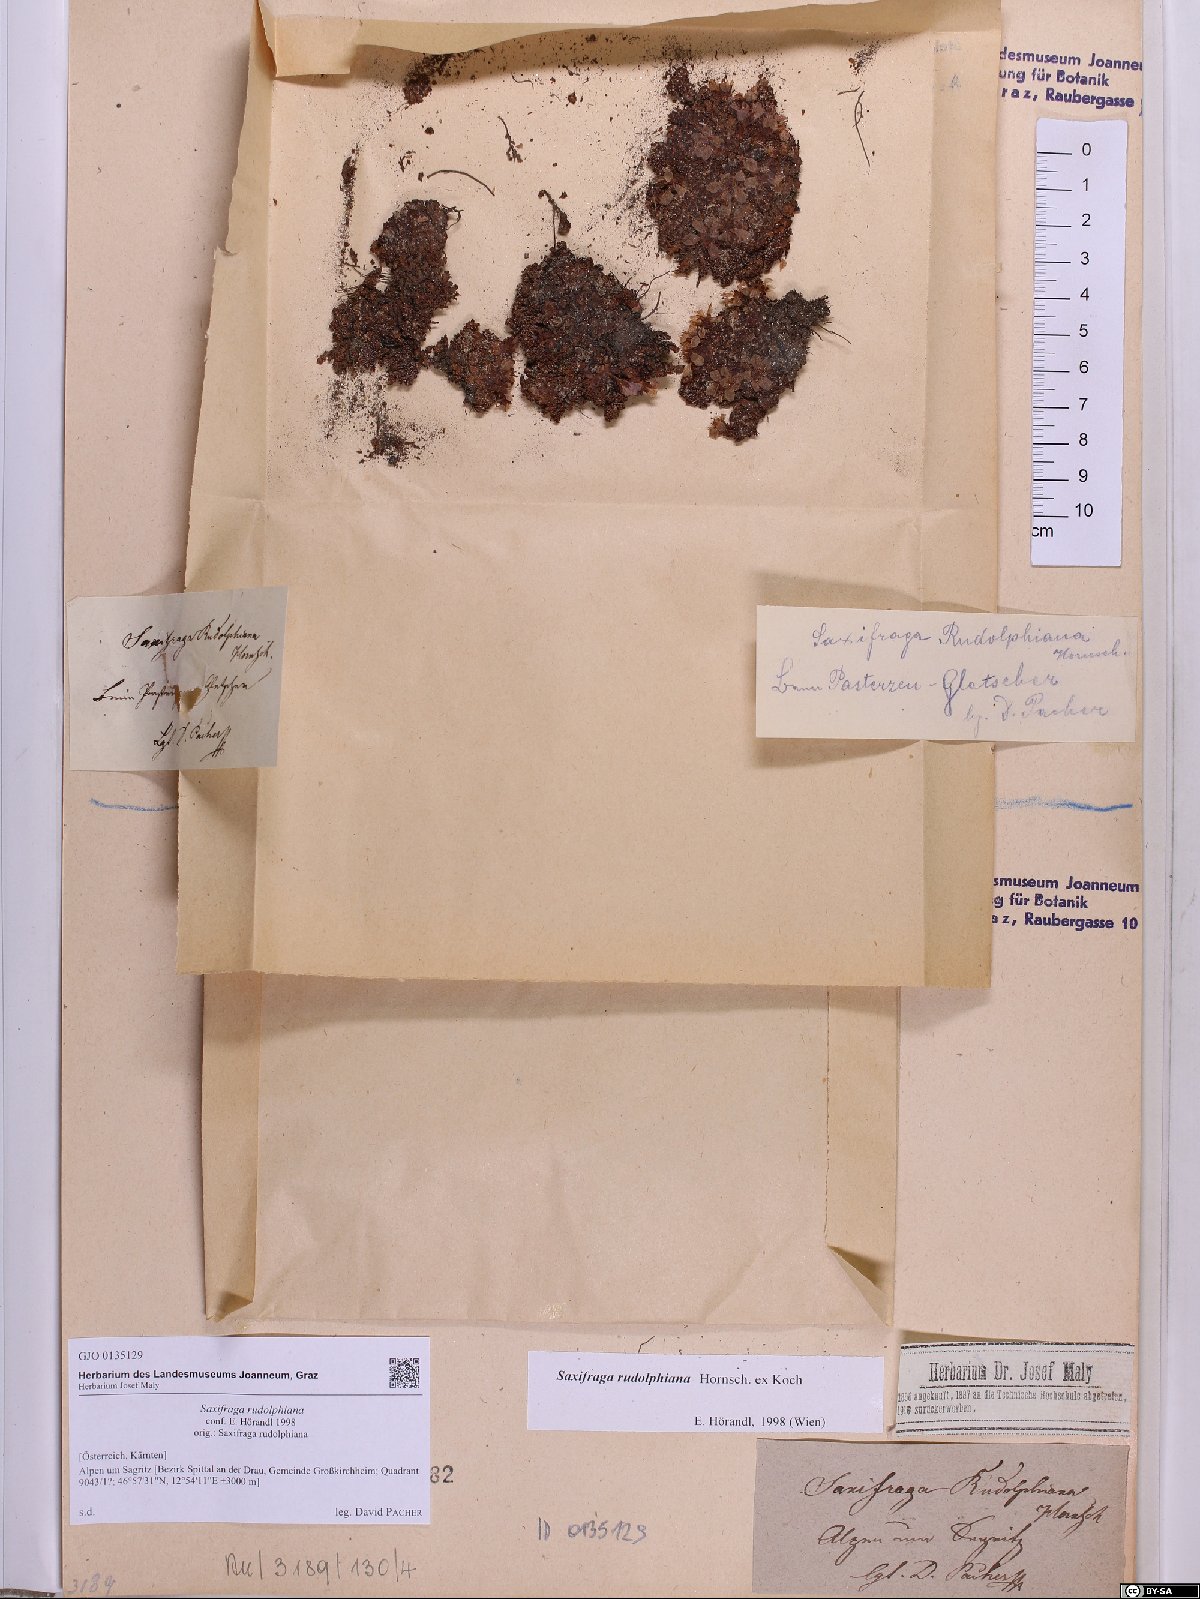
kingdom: Plantae
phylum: Tracheophyta
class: Magnoliopsida
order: Saxifragales
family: Saxifragaceae
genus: Saxifraga
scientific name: Saxifraga oppositifolia
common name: Purple saxifrage
